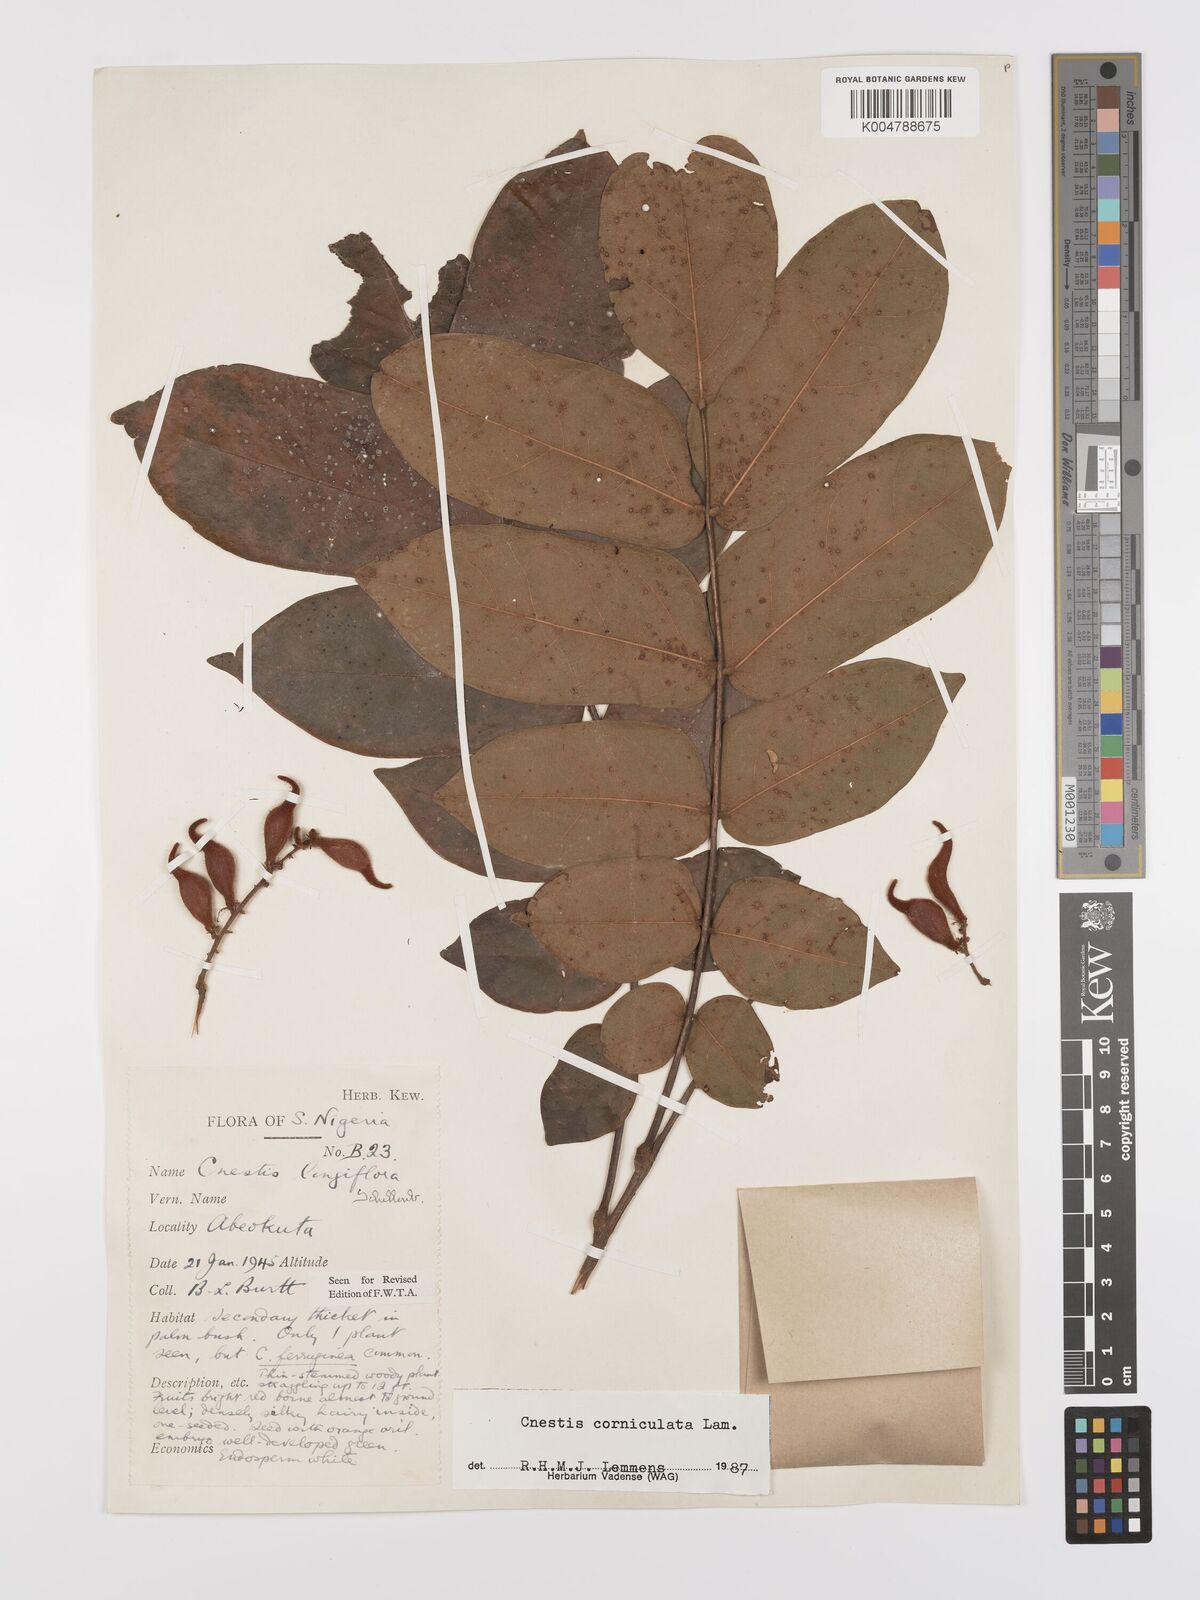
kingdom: Plantae
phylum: Tracheophyta
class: Magnoliopsida
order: Oxalidales
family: Connaraceae
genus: Cnestis
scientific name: Cnestis corniculata
